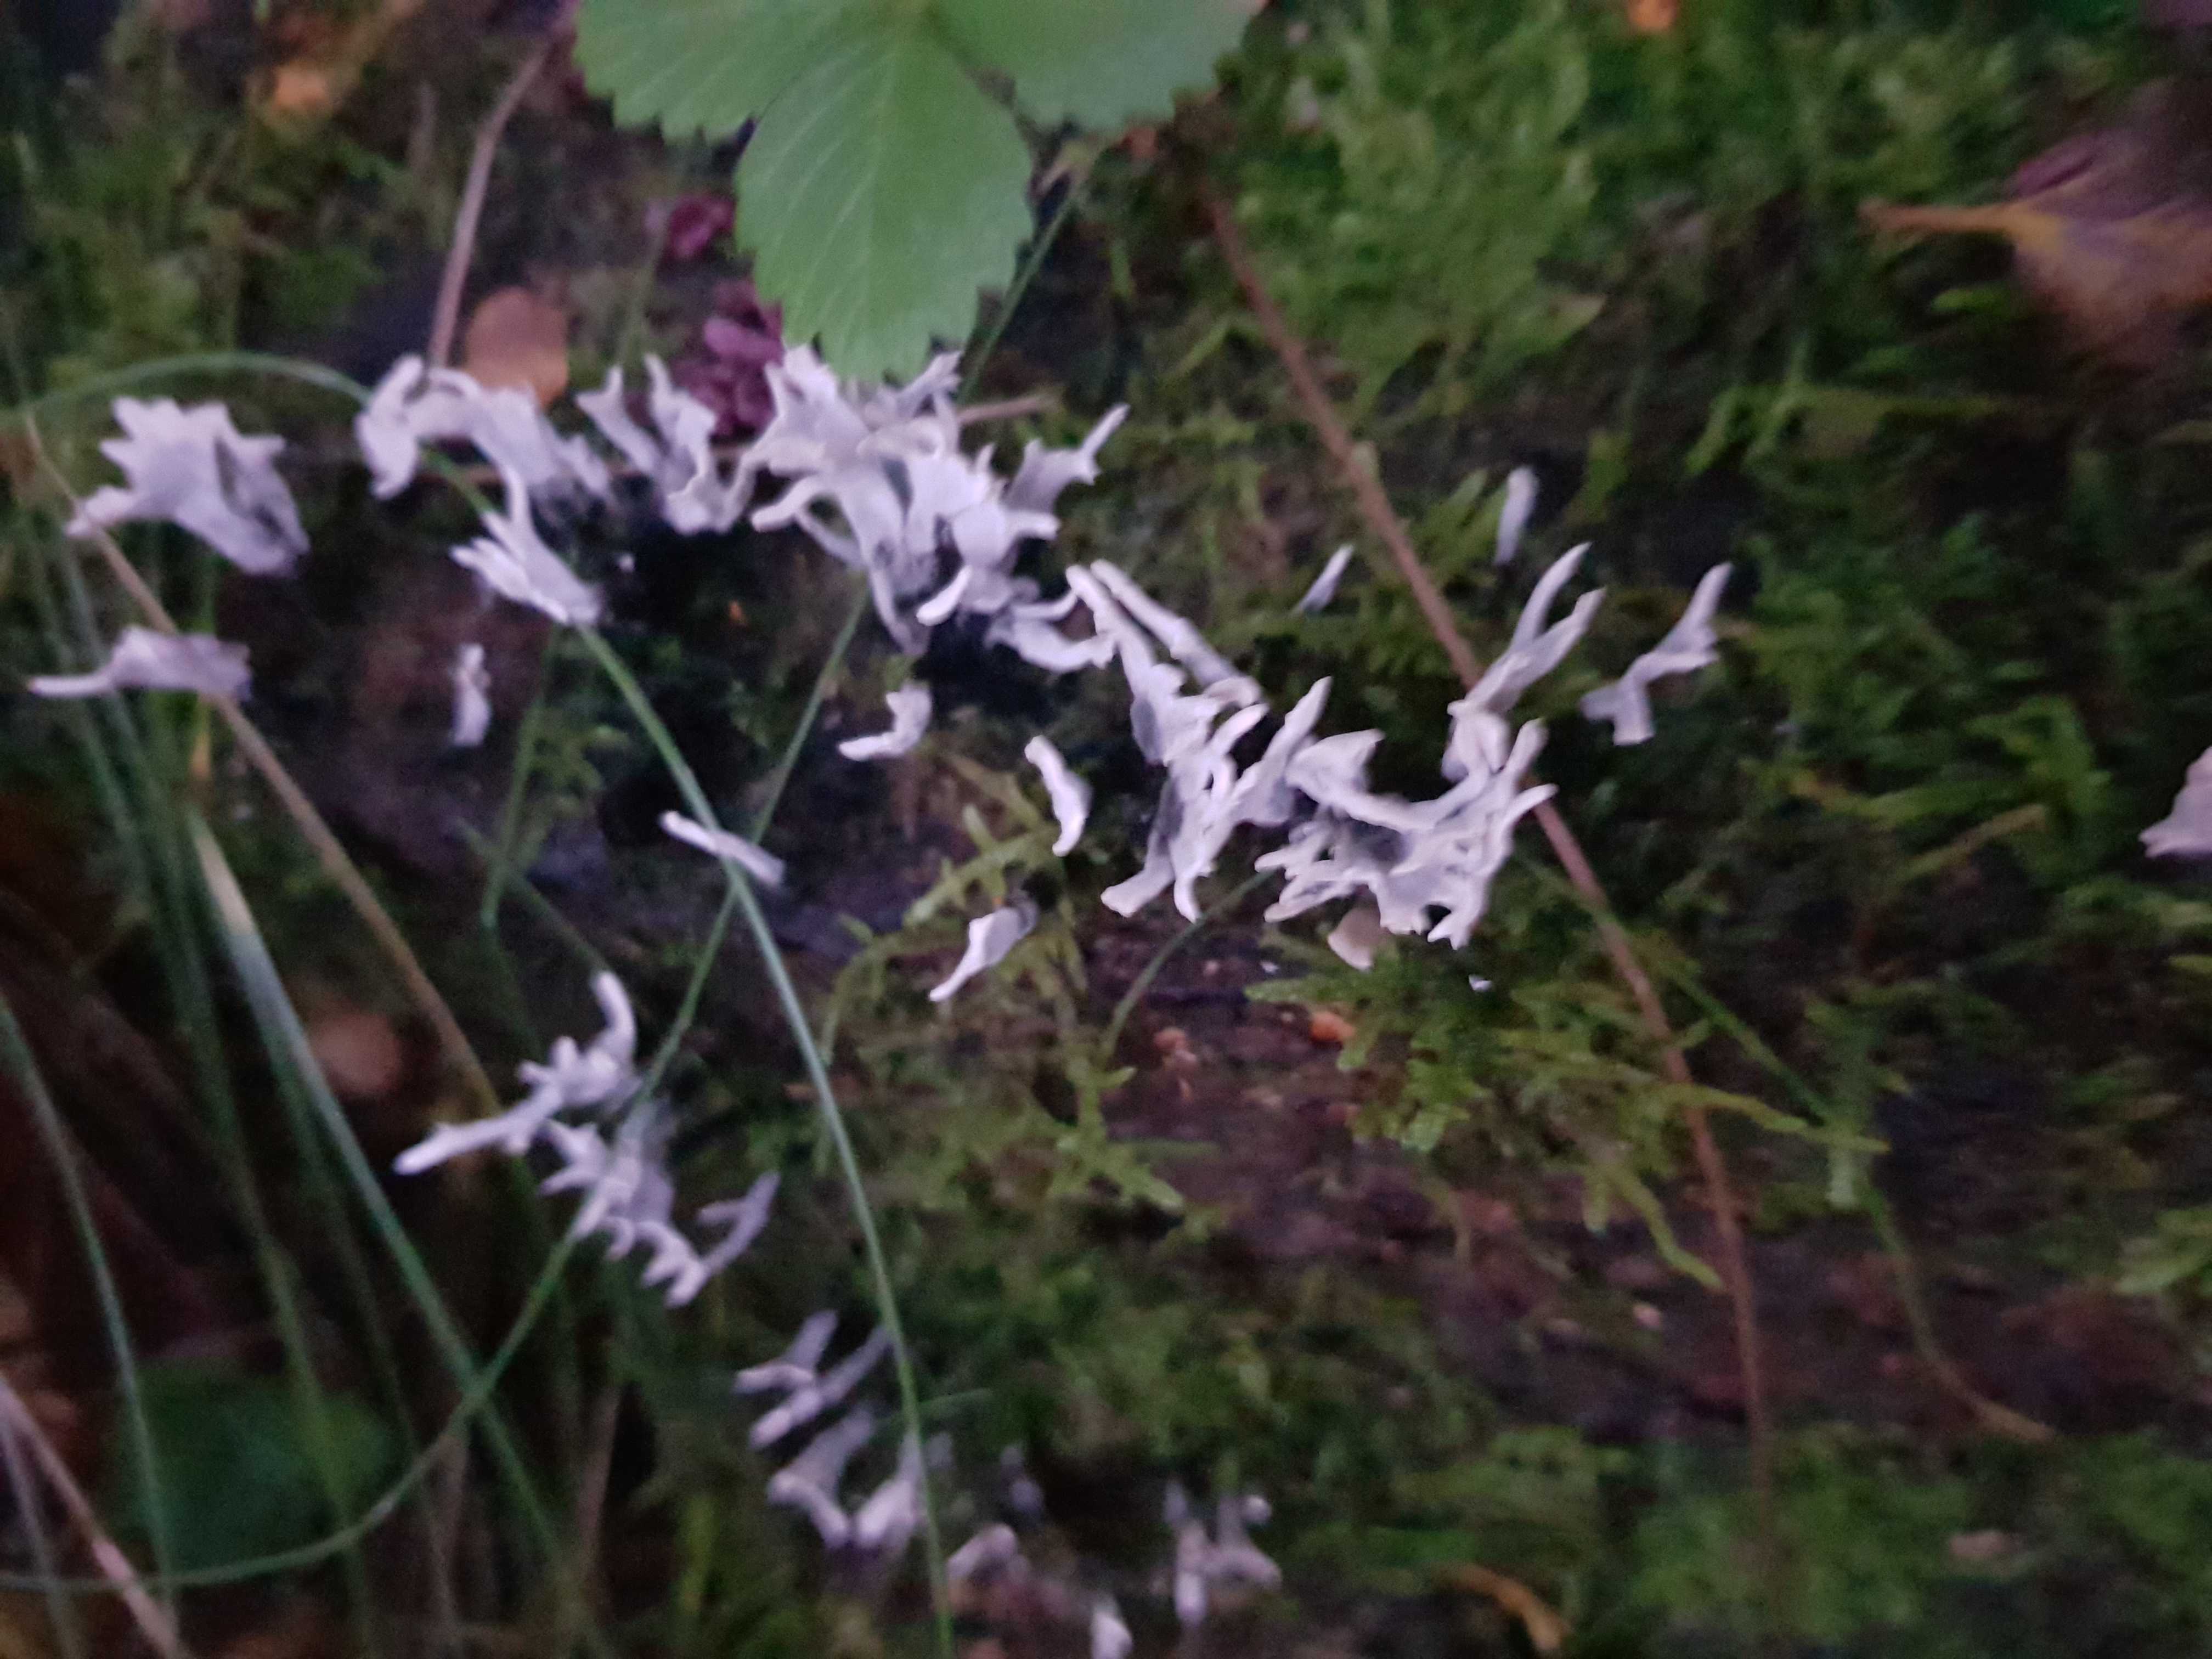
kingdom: Fungi
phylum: Ascomycota
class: Sordariomycetes
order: Xylariales
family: Xylariaceae
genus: Xylaria
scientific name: Xylaria hypoxylon
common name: grenet stødsvamp
